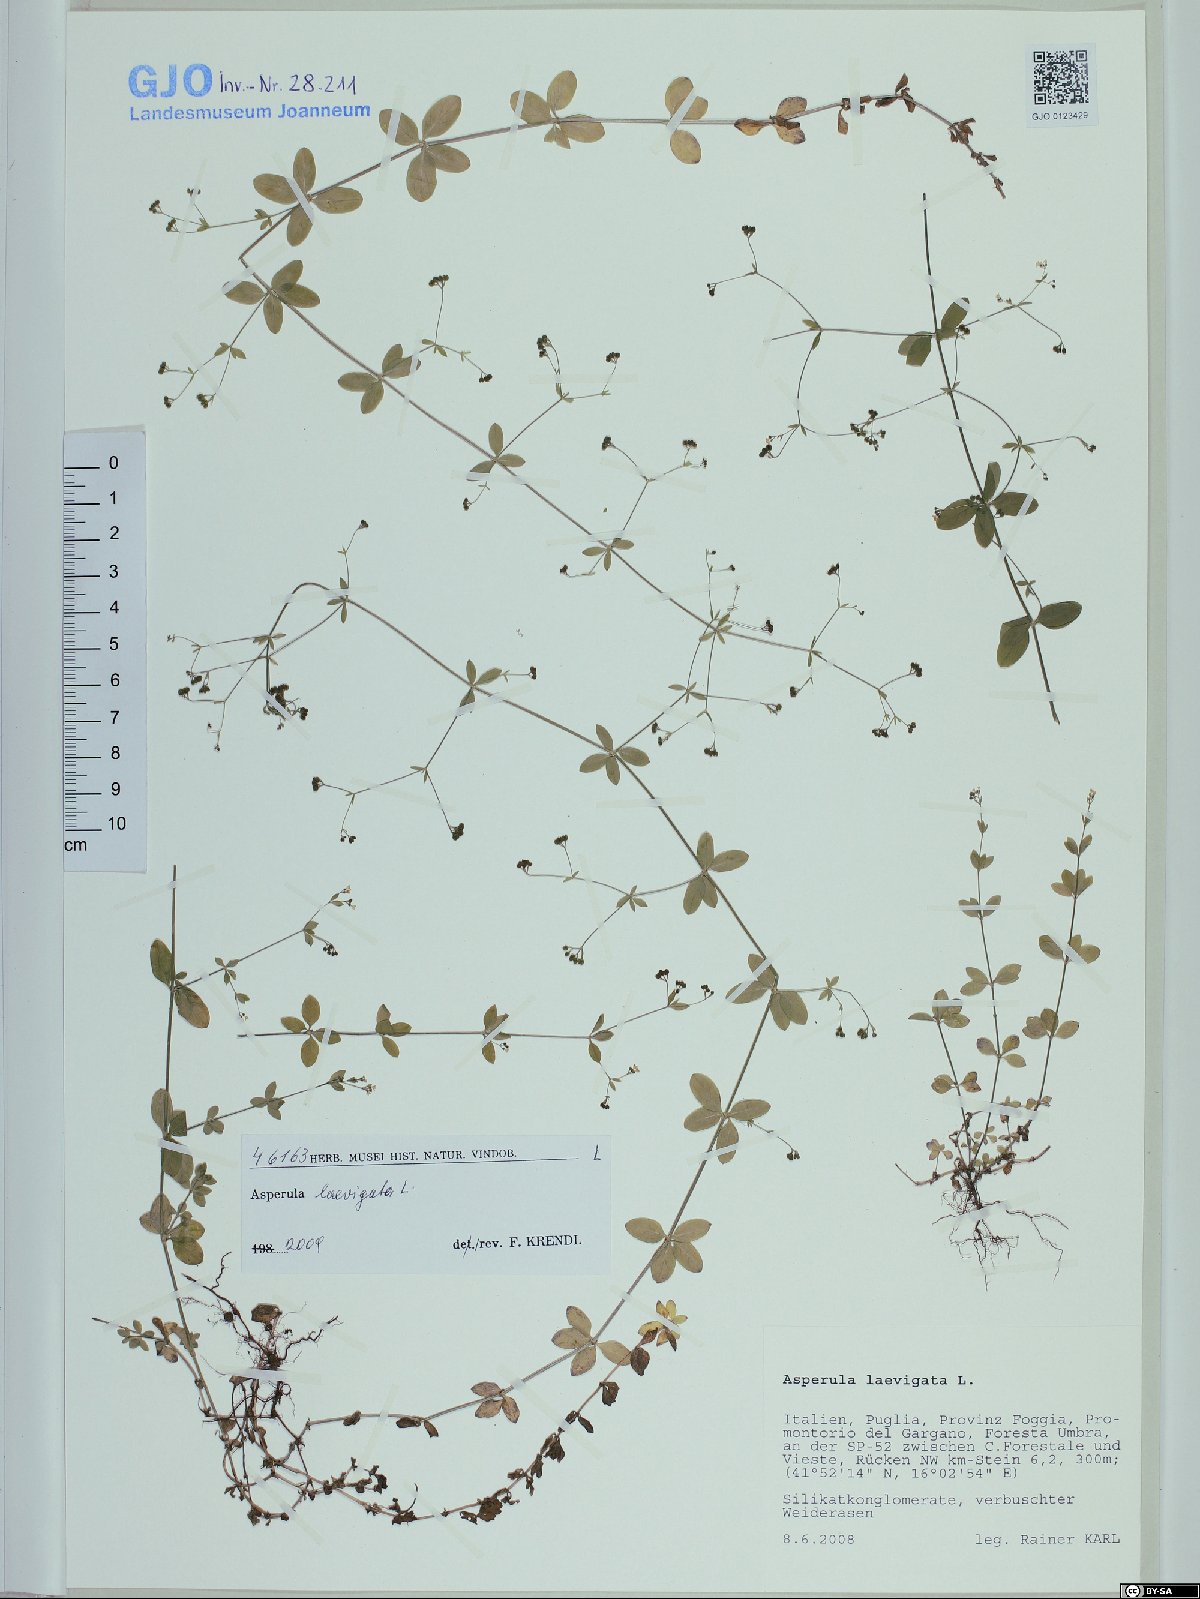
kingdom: Plantae
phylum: Tracheophyta
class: Magnoliopsida
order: Gentianales
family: Rubiaceae
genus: Asperula
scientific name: Asperula laevigata
